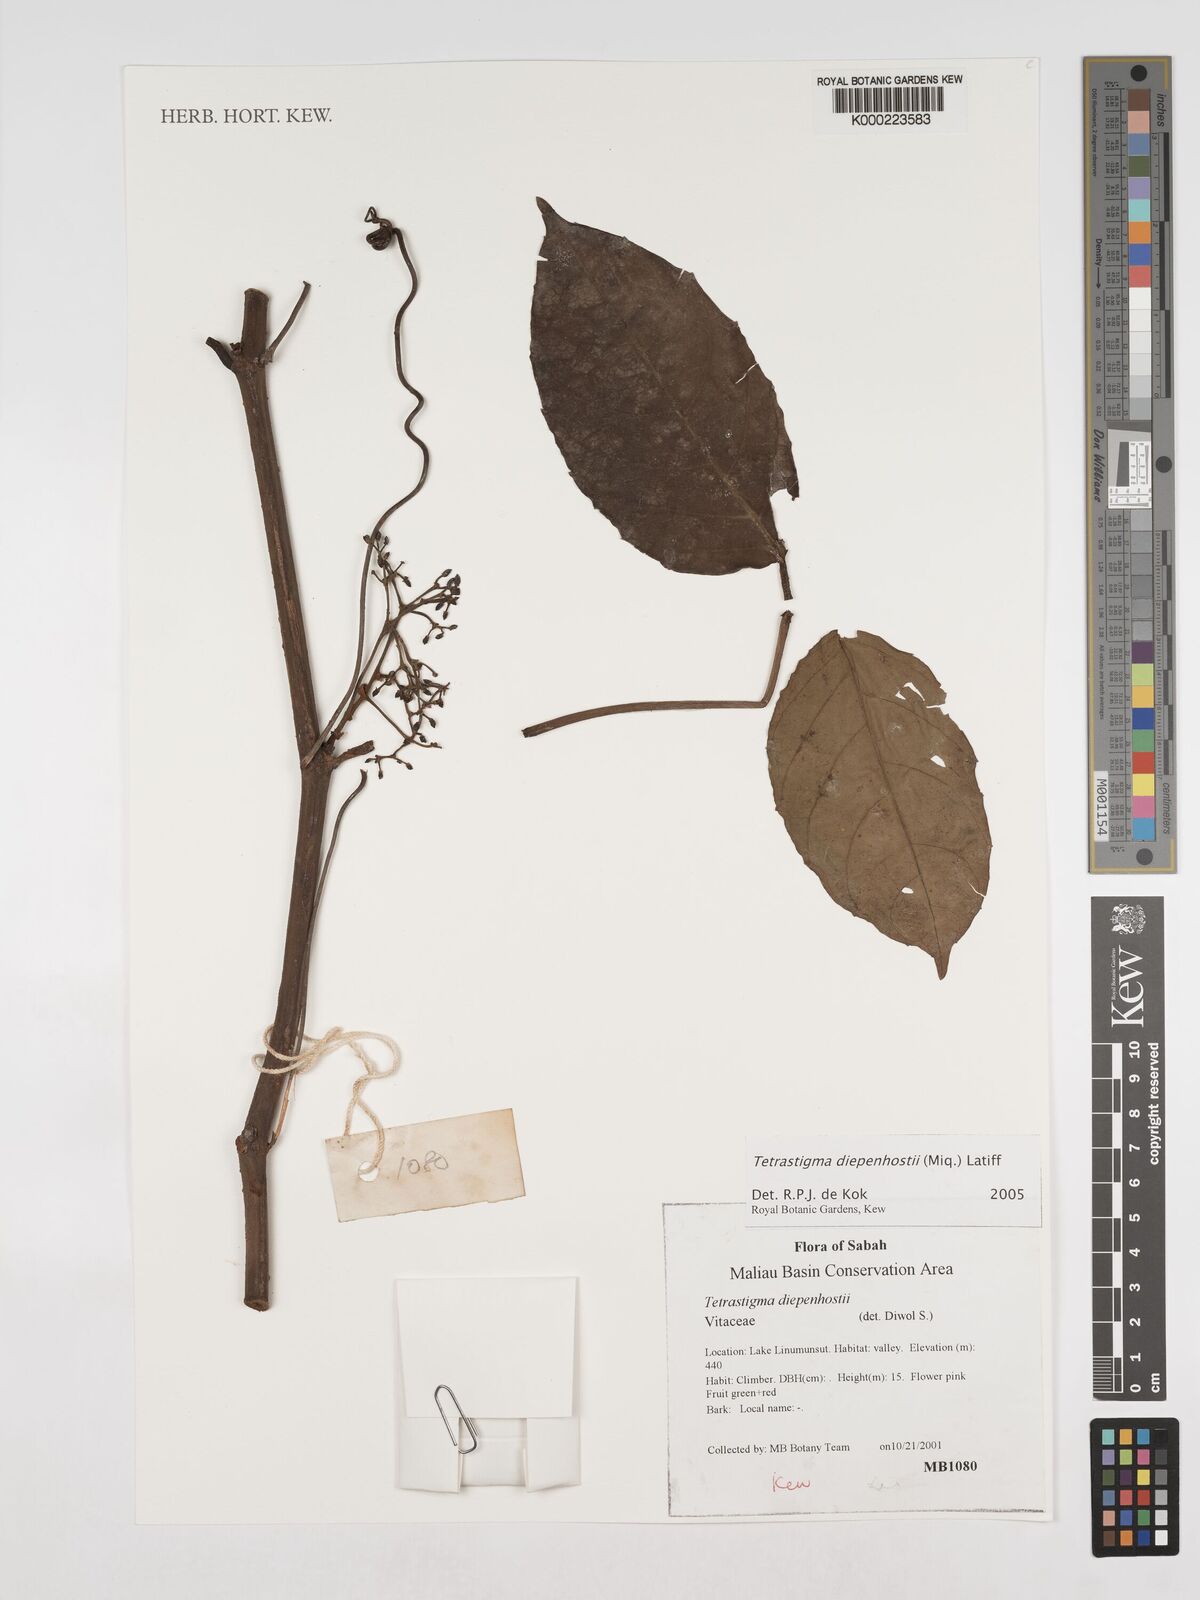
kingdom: Plantae
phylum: Tracheophyta
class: Magnoliopsida
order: Vitales
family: Vitaceae
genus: Tetrastigma
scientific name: Tetrastigma
